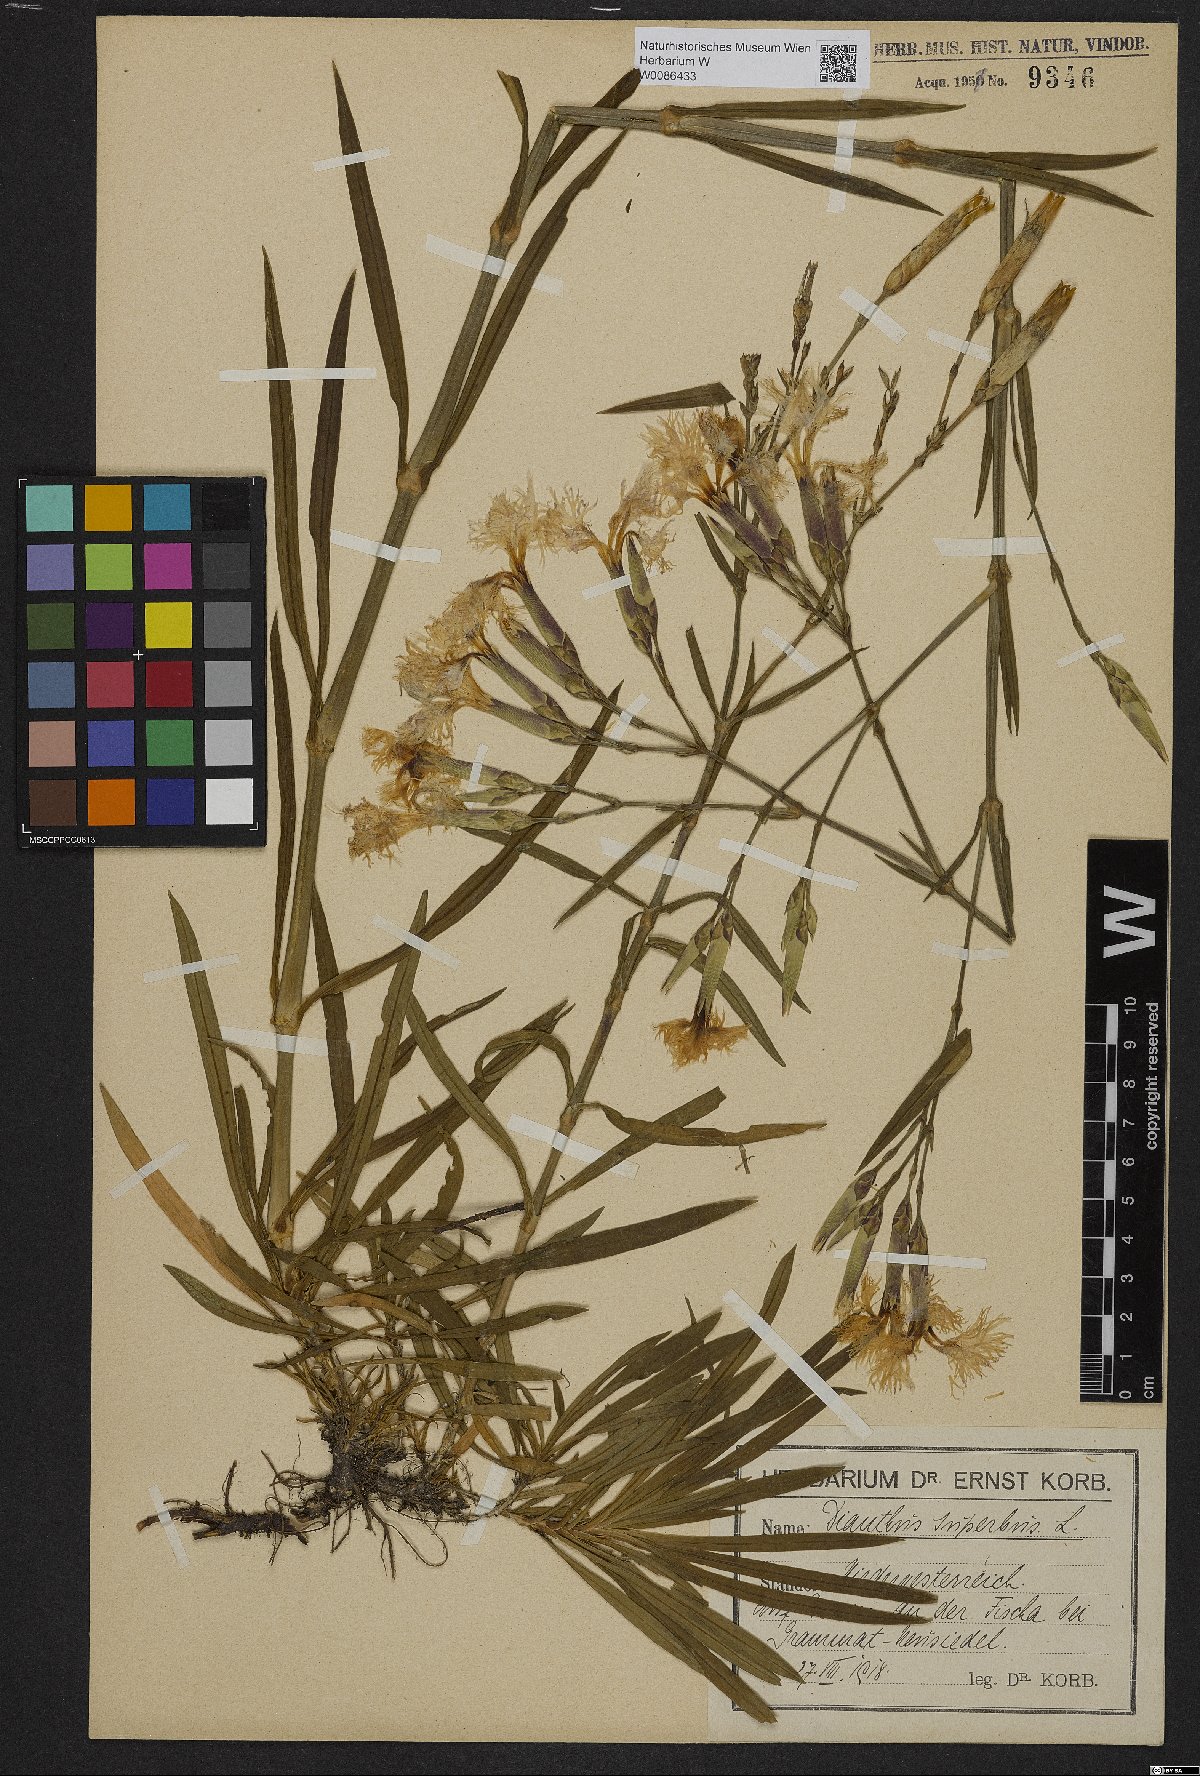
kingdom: Plantae
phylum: Tracheophyta
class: Magnoliopsida
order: Caryophyllales
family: Caryophyllaceae
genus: Dianthus
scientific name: Dianthus superbus
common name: Fringed pink
